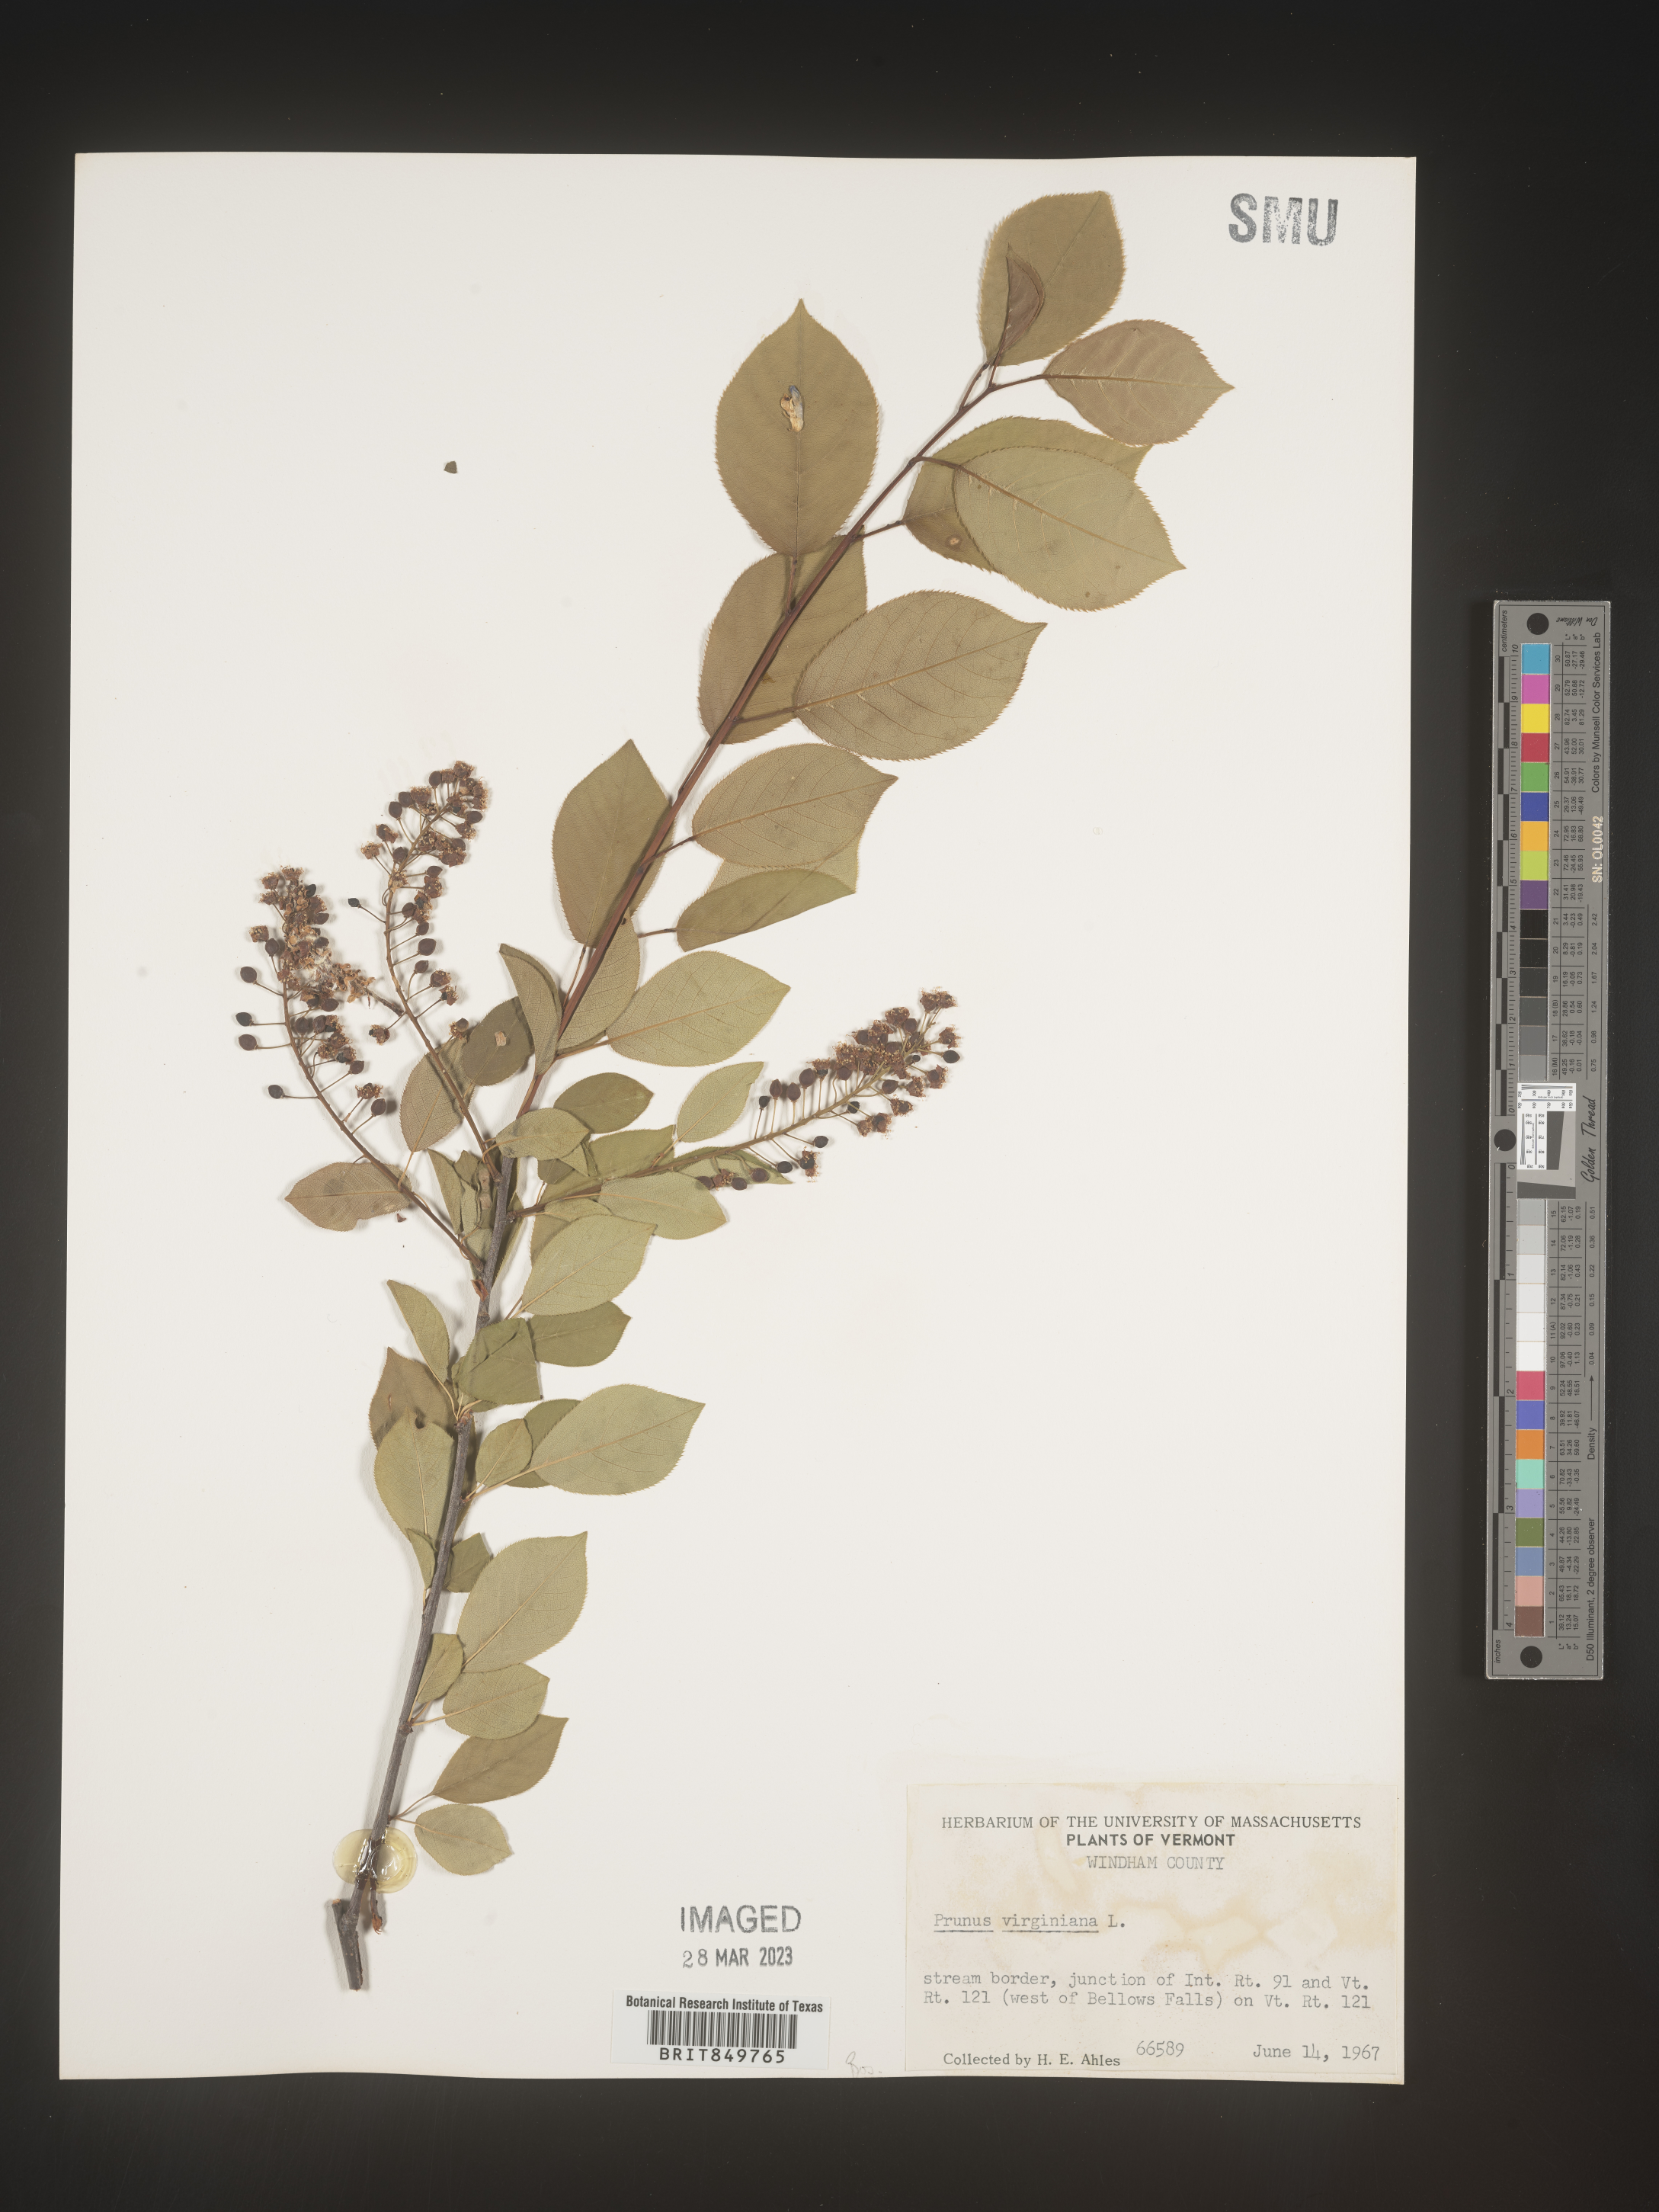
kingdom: Plantae
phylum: Tracheophyta
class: Magnoliopsida
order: Rosales
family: Rosaceae
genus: Prunus
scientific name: Prunus virginiana
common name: Chokecherry
